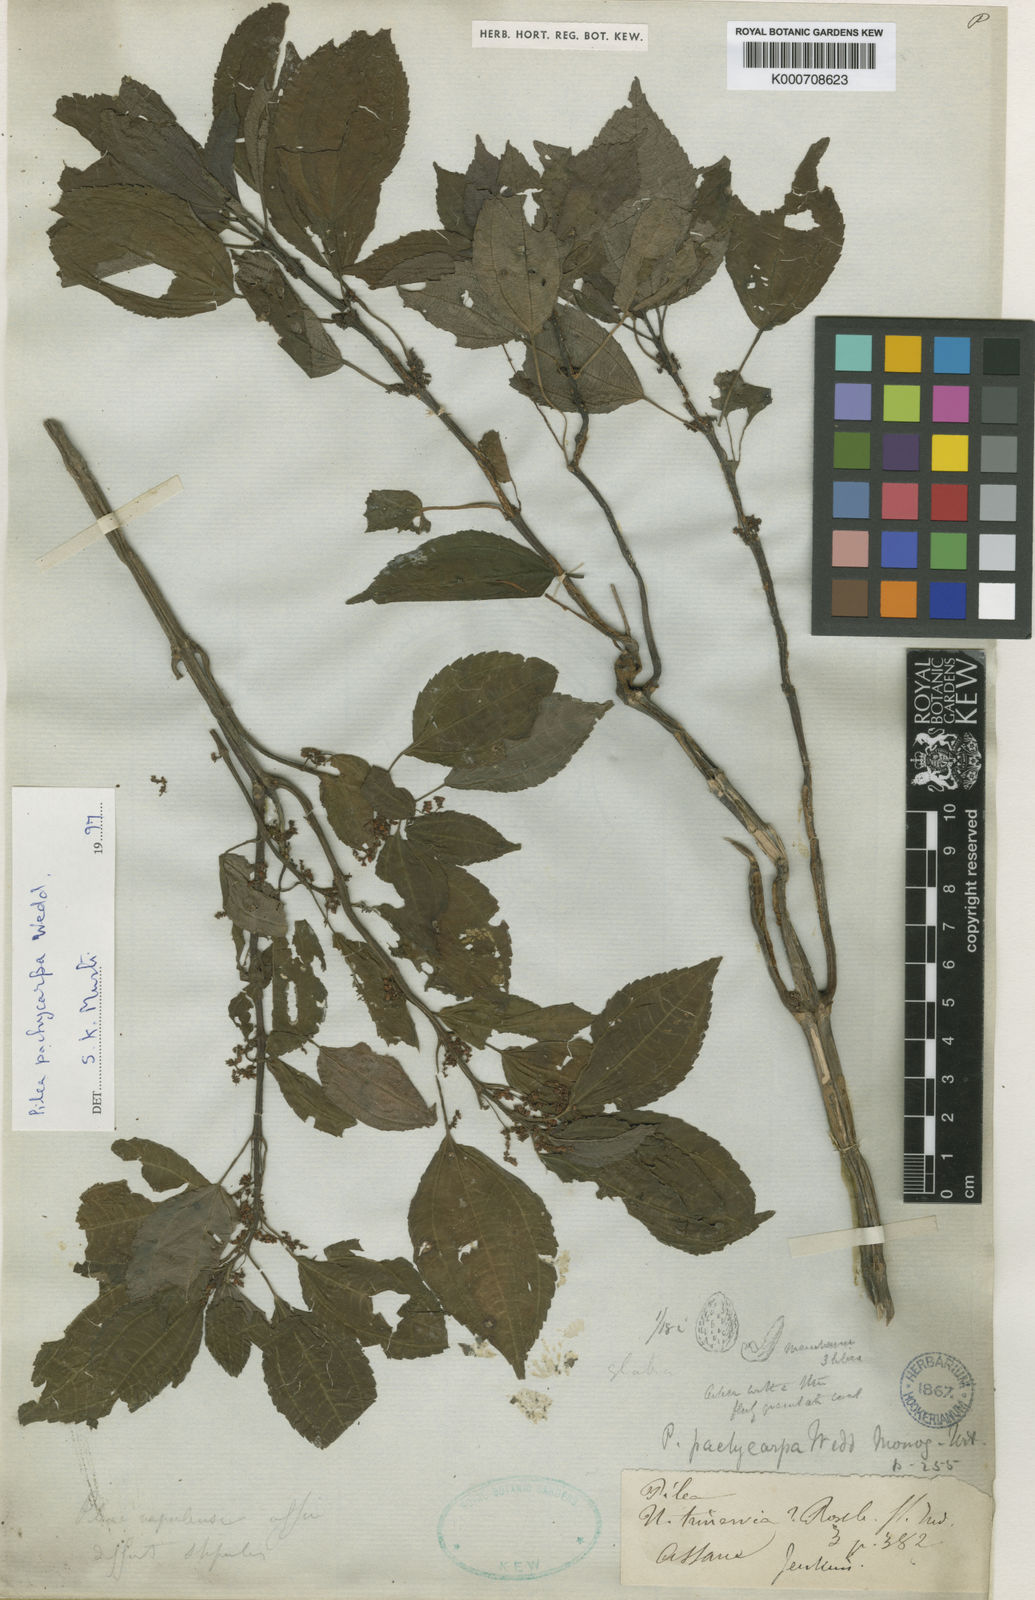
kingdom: Plantae
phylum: Tracheophyta
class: Magnoliopsida
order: Rosales
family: Urticaceae
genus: Pilea
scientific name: Pilea pachycarpa
